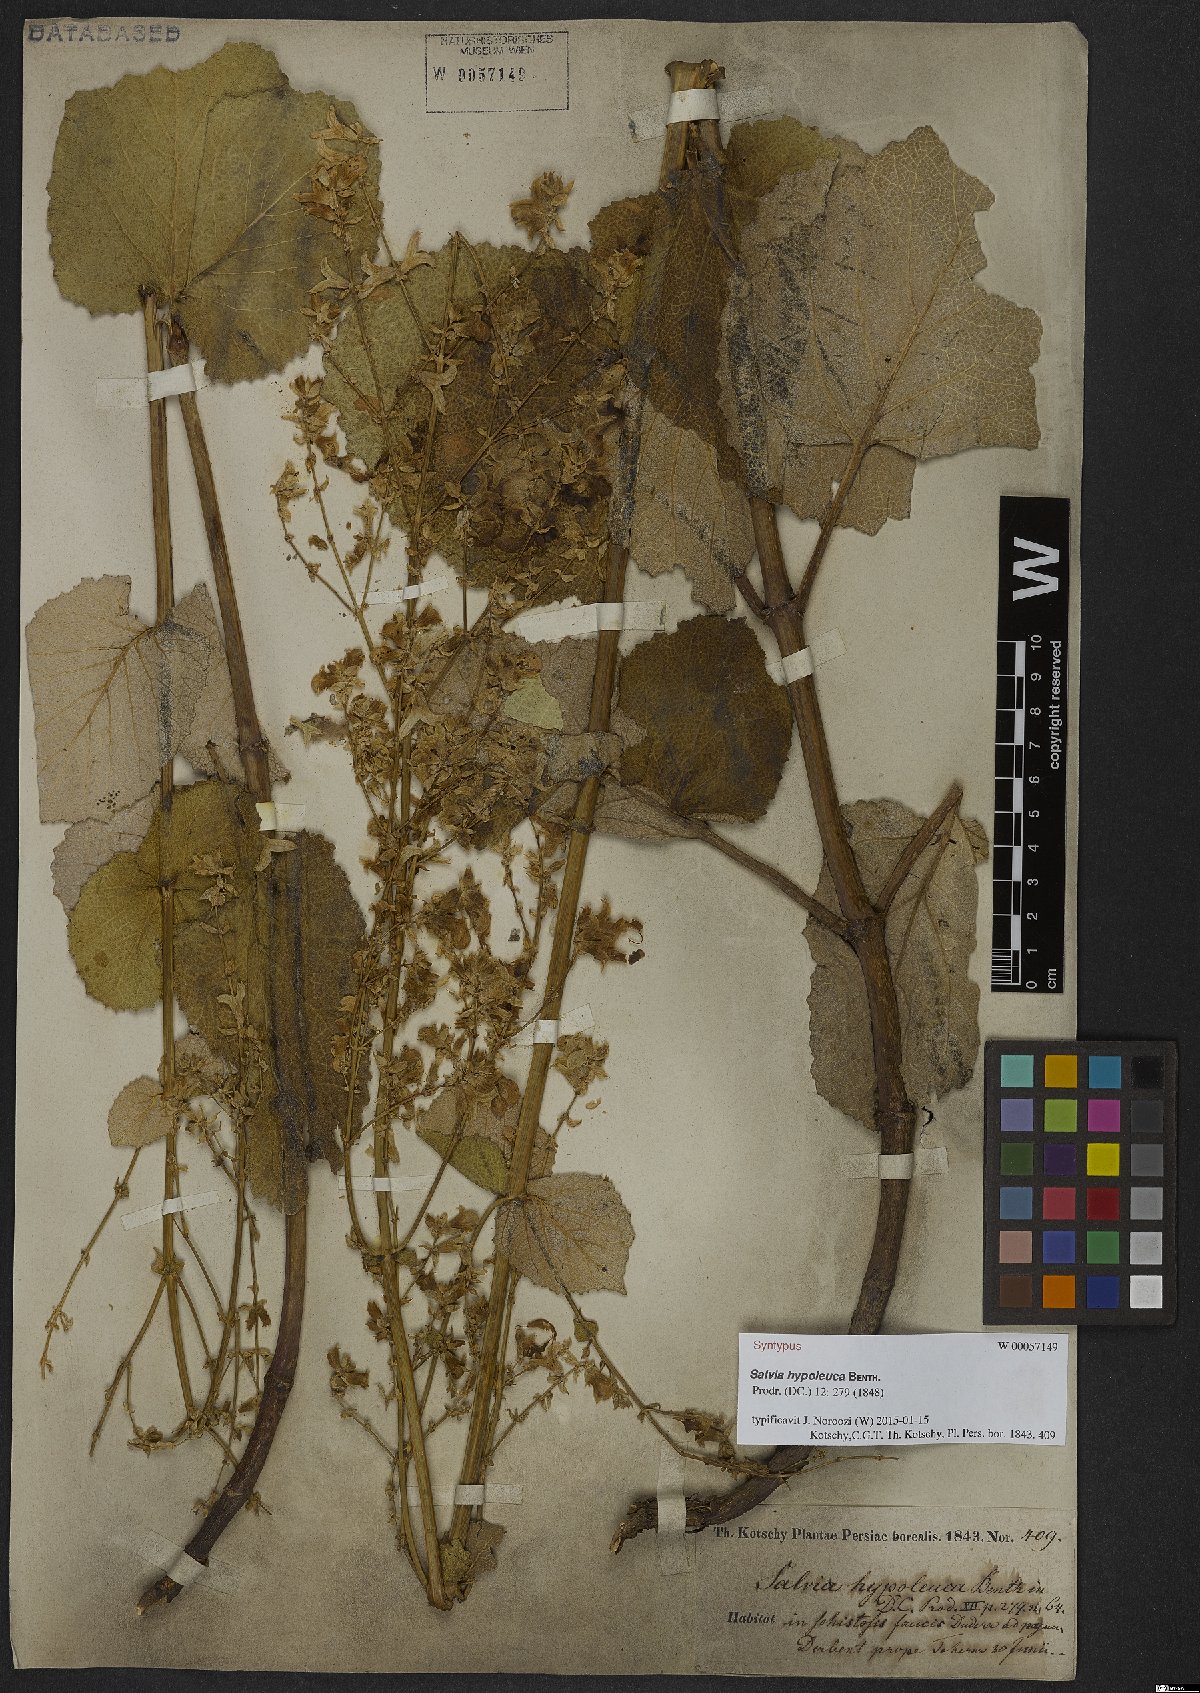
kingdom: Plantae
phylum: Tracheophyta
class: Magnoliopsida
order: Lamiales
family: Lamiaceae
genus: Salvia
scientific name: Salvia hypoleuca
